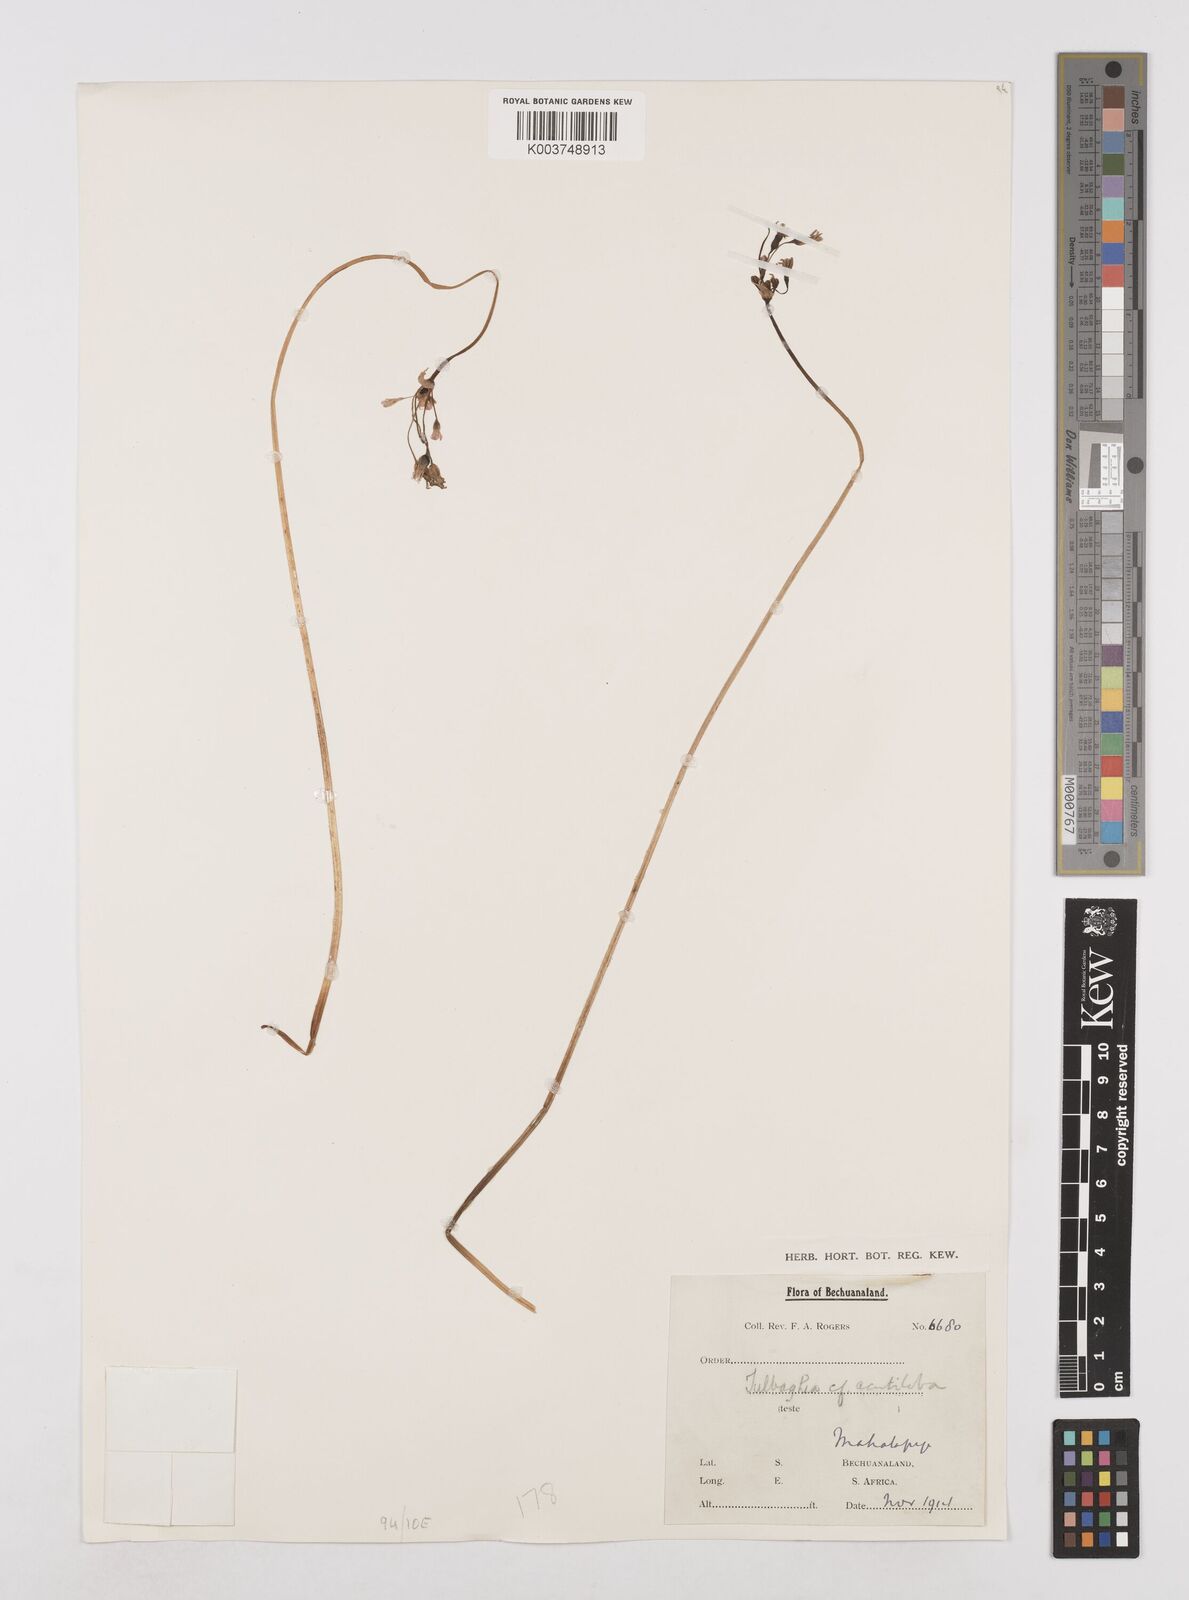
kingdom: Plantae
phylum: Tracheophyta
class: Liliopsida
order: Asparagales
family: Amaryllidaceae
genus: Tulbaghia
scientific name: Tulbaghia
